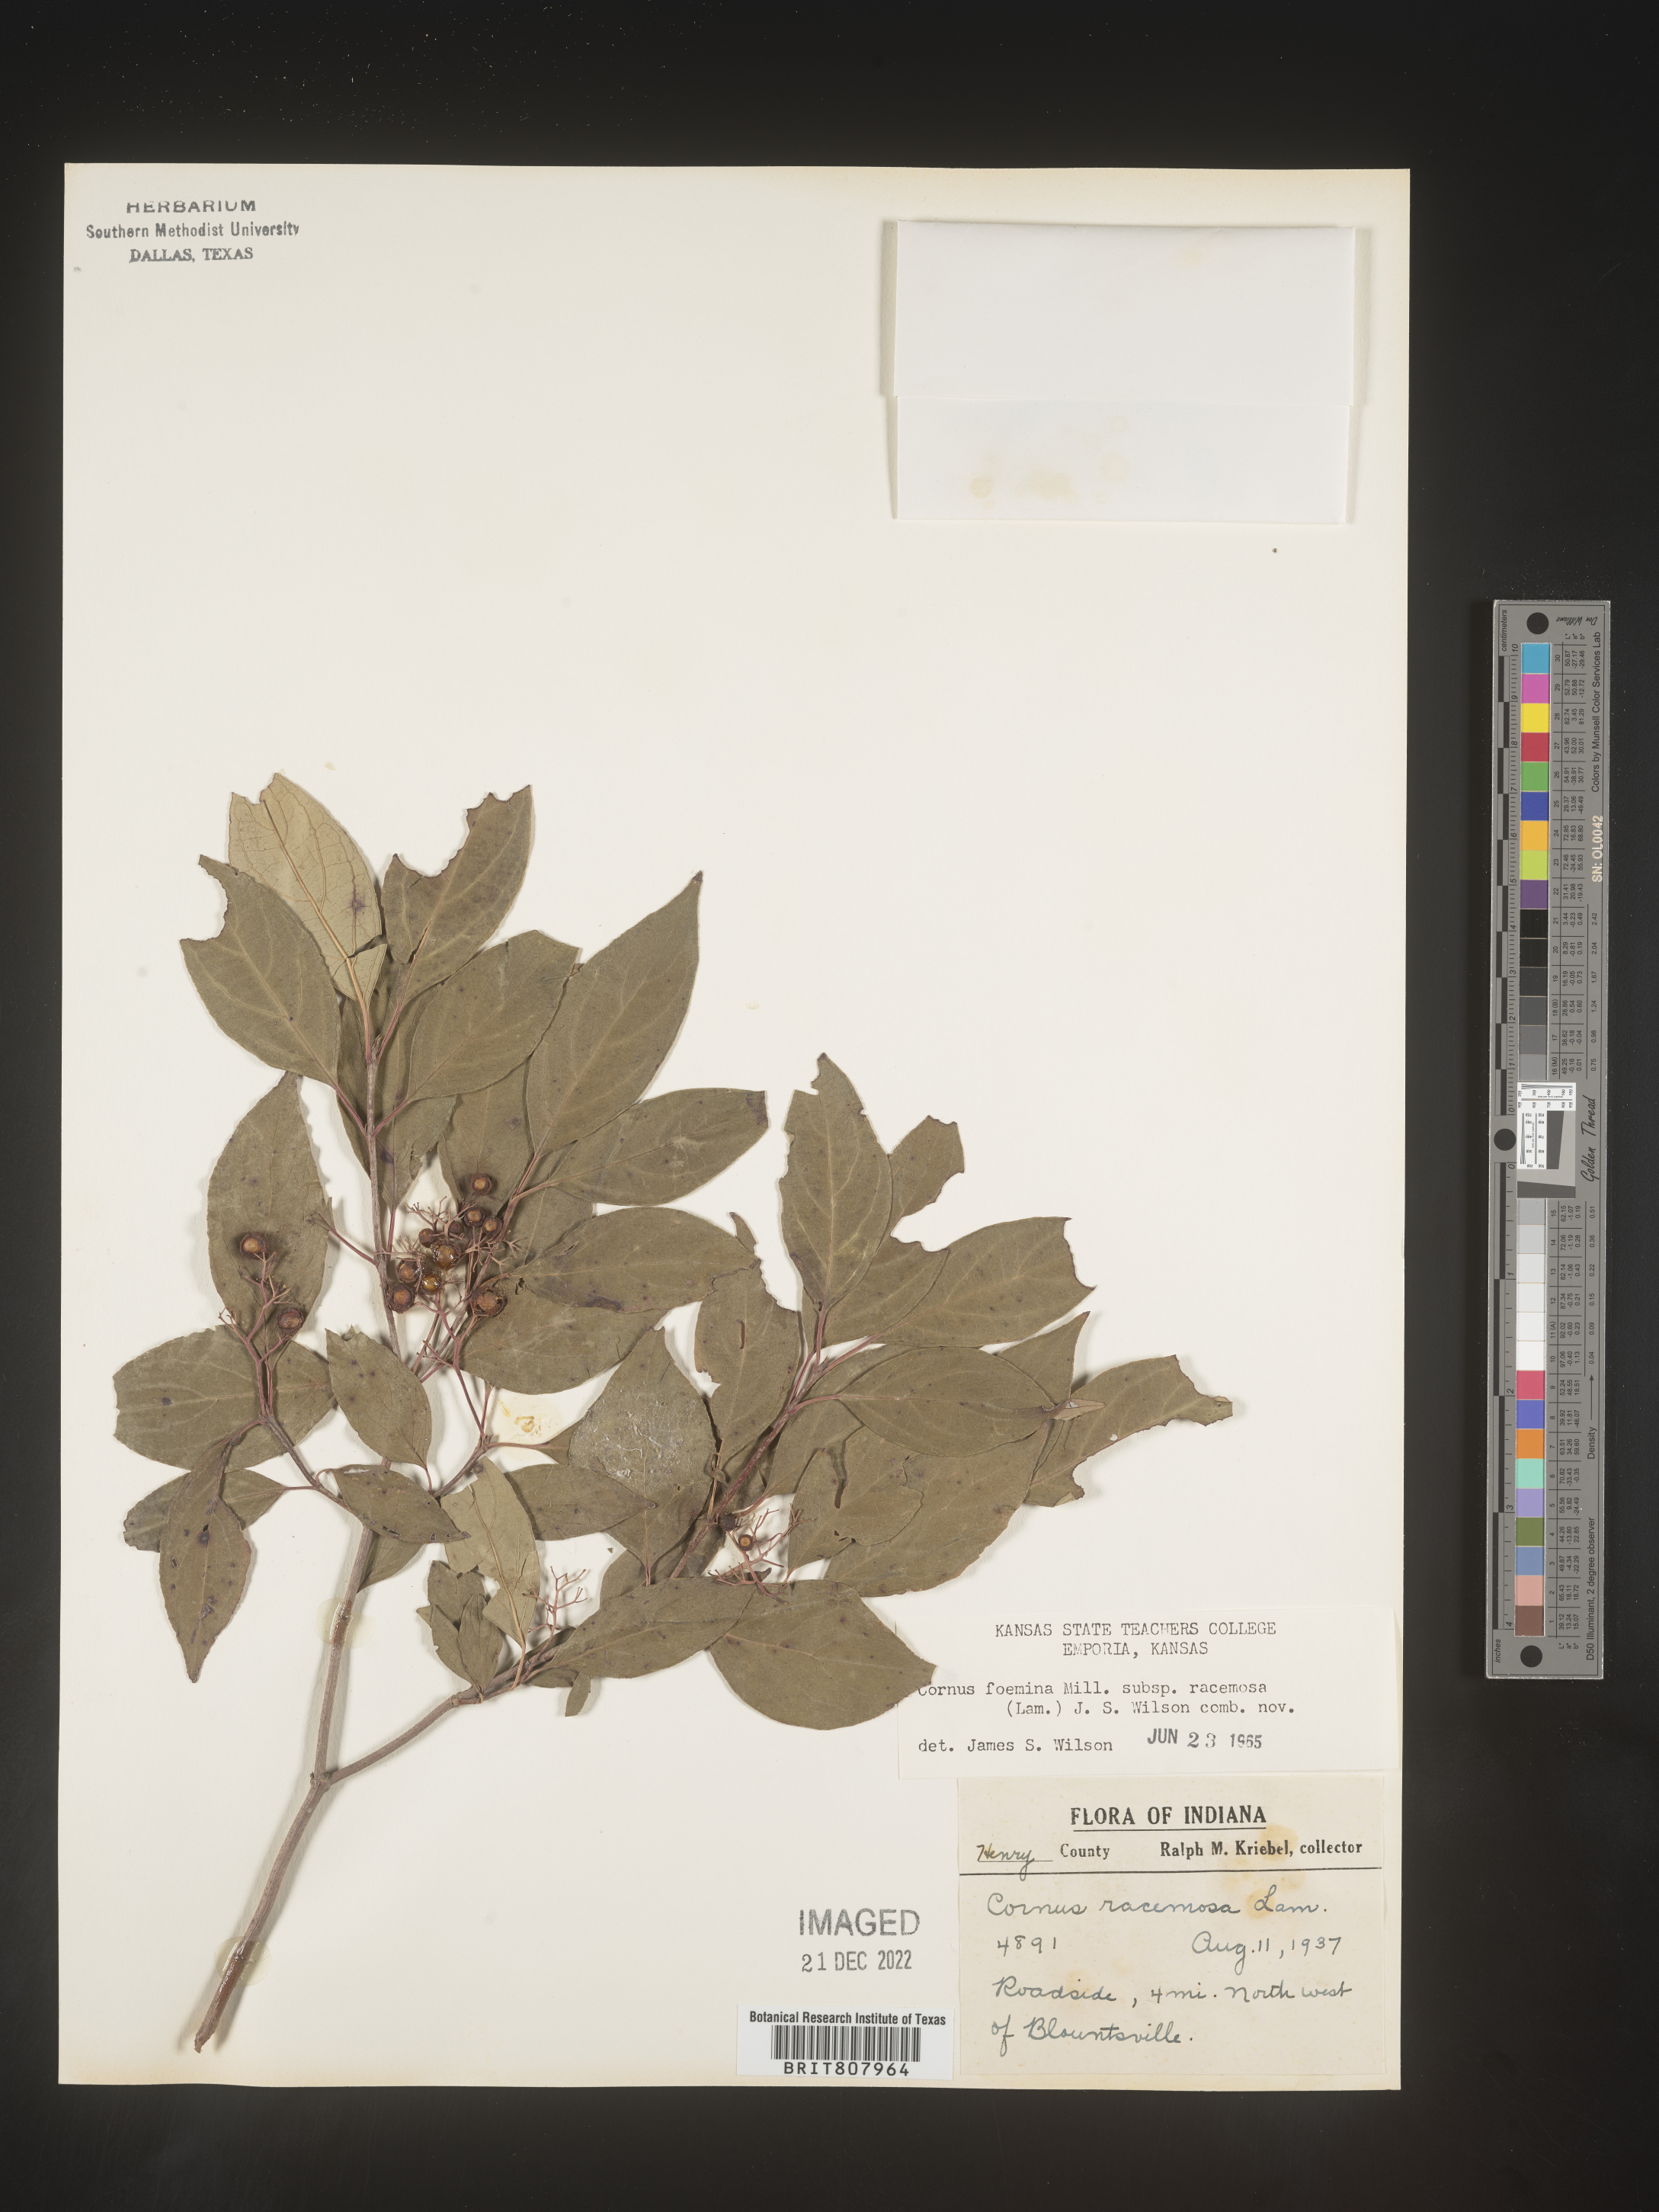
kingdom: Plantae
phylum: Tracheophyta
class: Magnoliopsida
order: Cornales
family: Cornaceae
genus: Cornus
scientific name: Cornus racemosa
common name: Panicled dogwood
